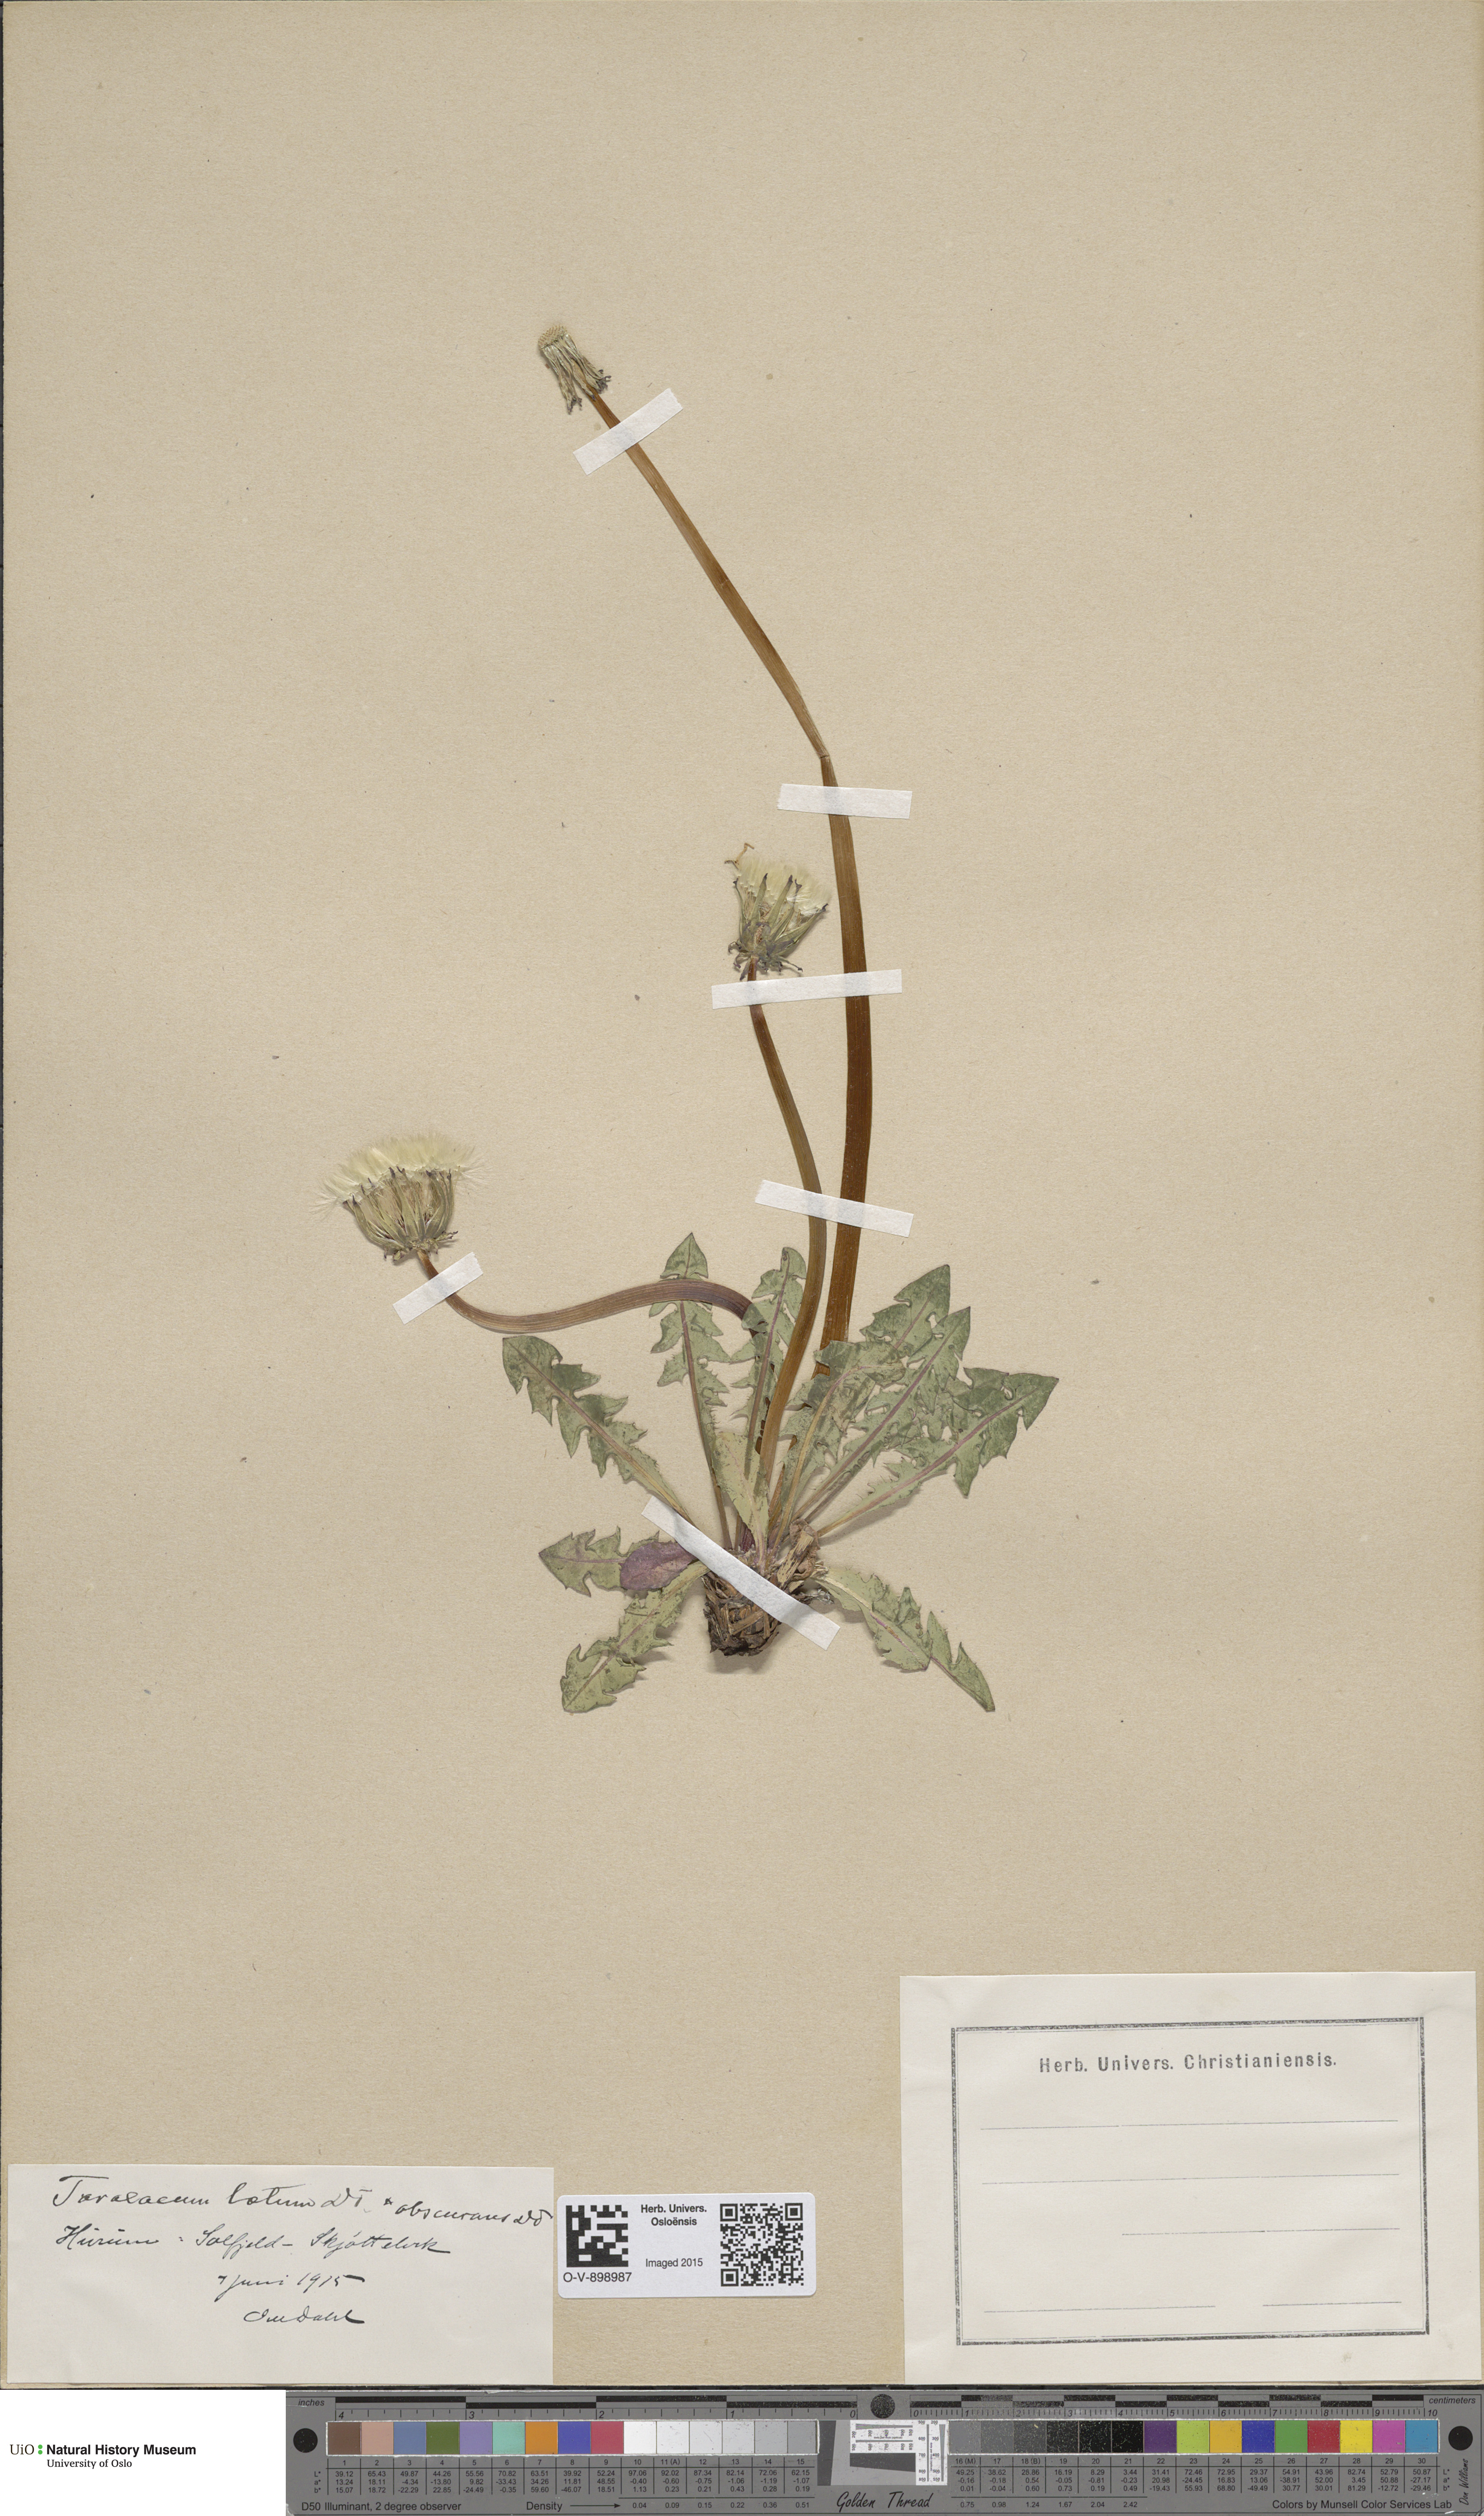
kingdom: Plantae
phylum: Tracheophyta
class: Magnoliopsida
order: Asterales
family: Asteraceae
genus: Taraxacum
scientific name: Taraxacum laetum
